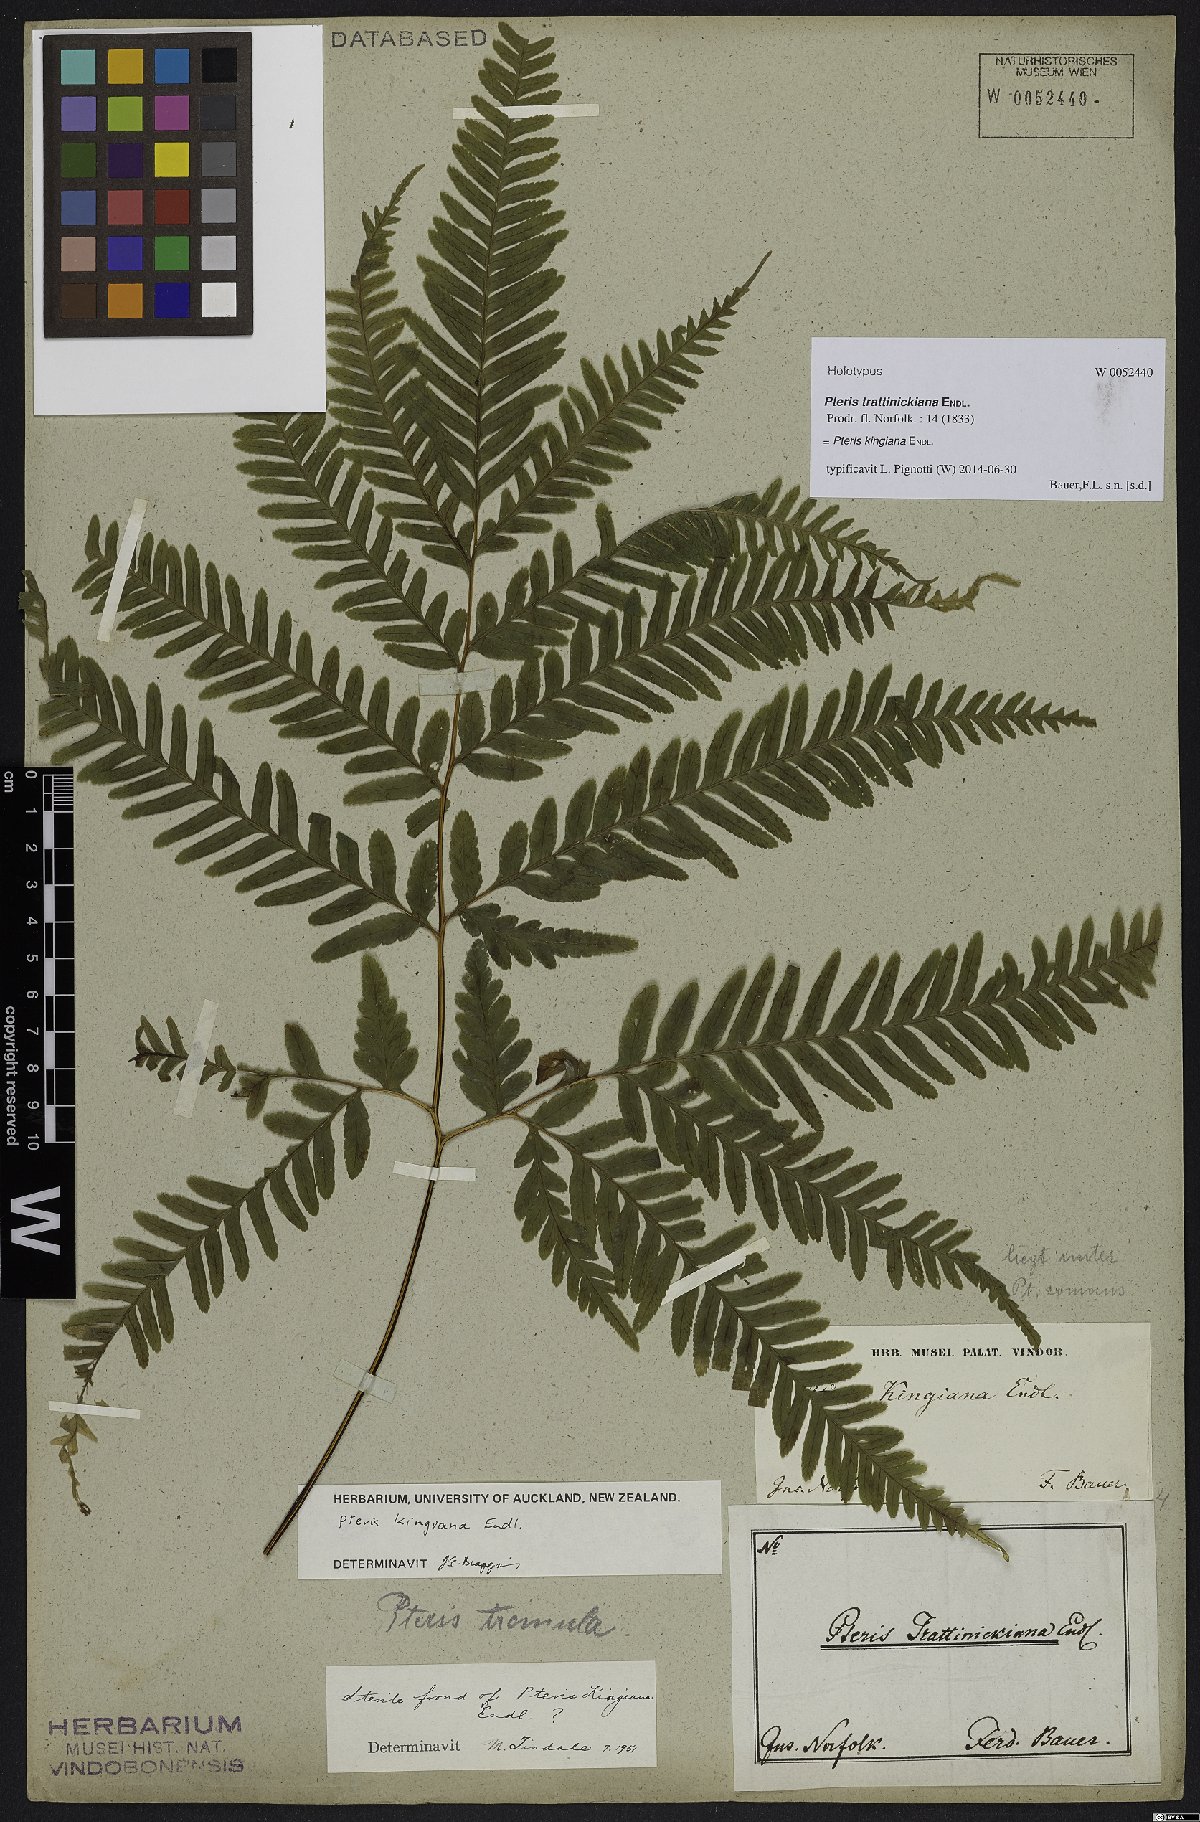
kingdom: Plantae
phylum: Tracheophyta
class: Polypodiopsida
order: Polypodiales
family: Pteridaceae
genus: Pteris
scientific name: Pteris kingiana
